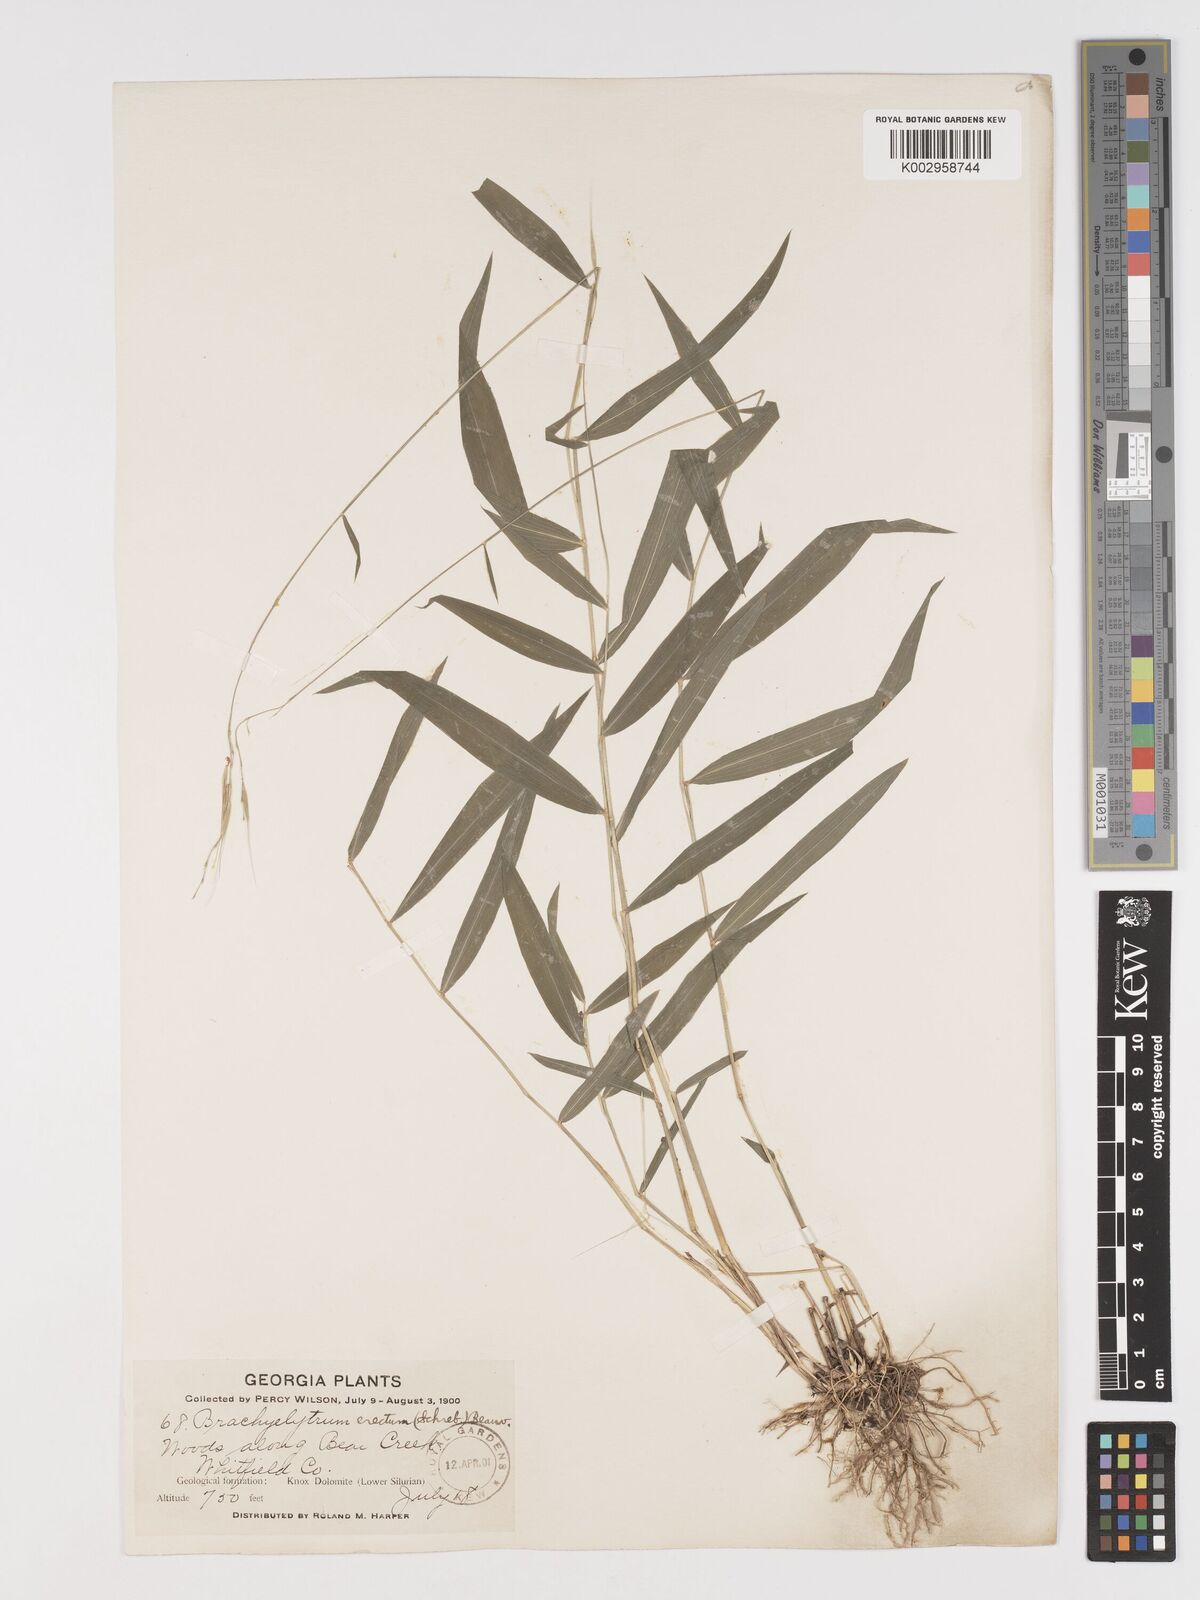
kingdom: Plantae
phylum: Tracheophyta
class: Liliopsida
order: Poales
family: Poaceae
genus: Brachyelytrum
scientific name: Brachyelytrum erectum
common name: Bearded shorthusk
